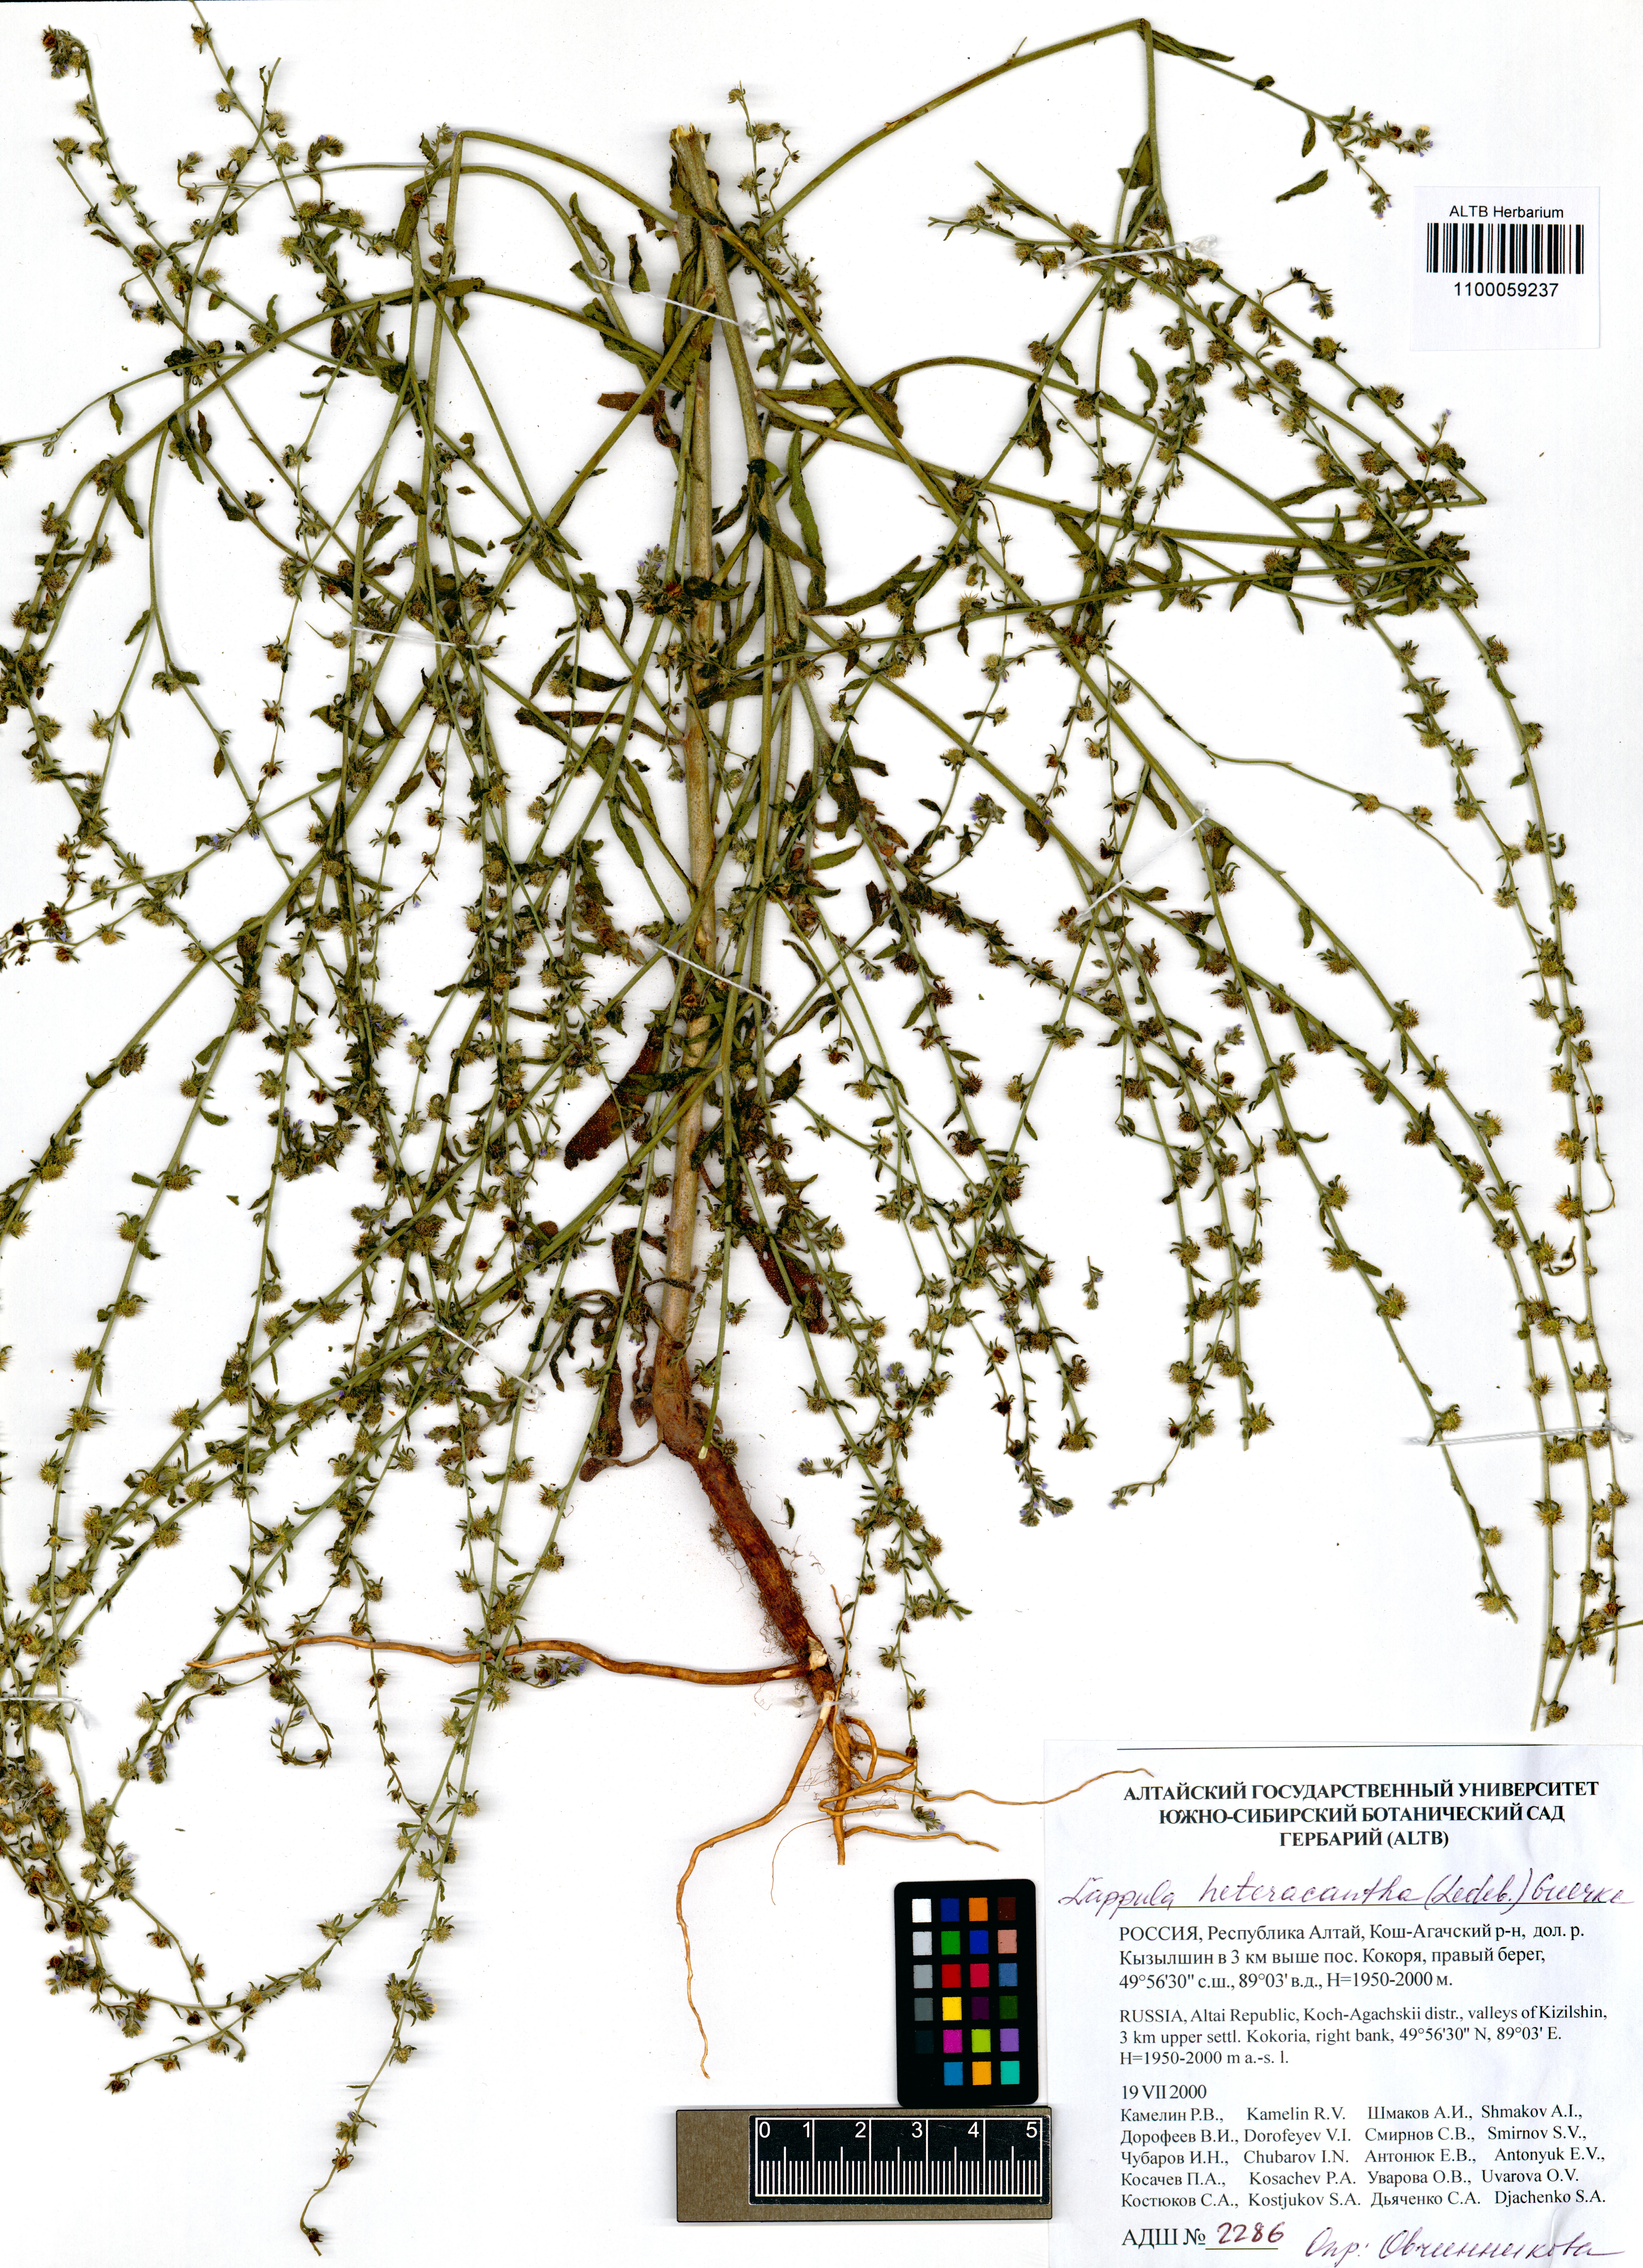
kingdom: Plantae
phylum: Tracheophyta
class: Magnoliopsida
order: Boraginales
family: Boraginaceae
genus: Lappula
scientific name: Lappula heteracantha
